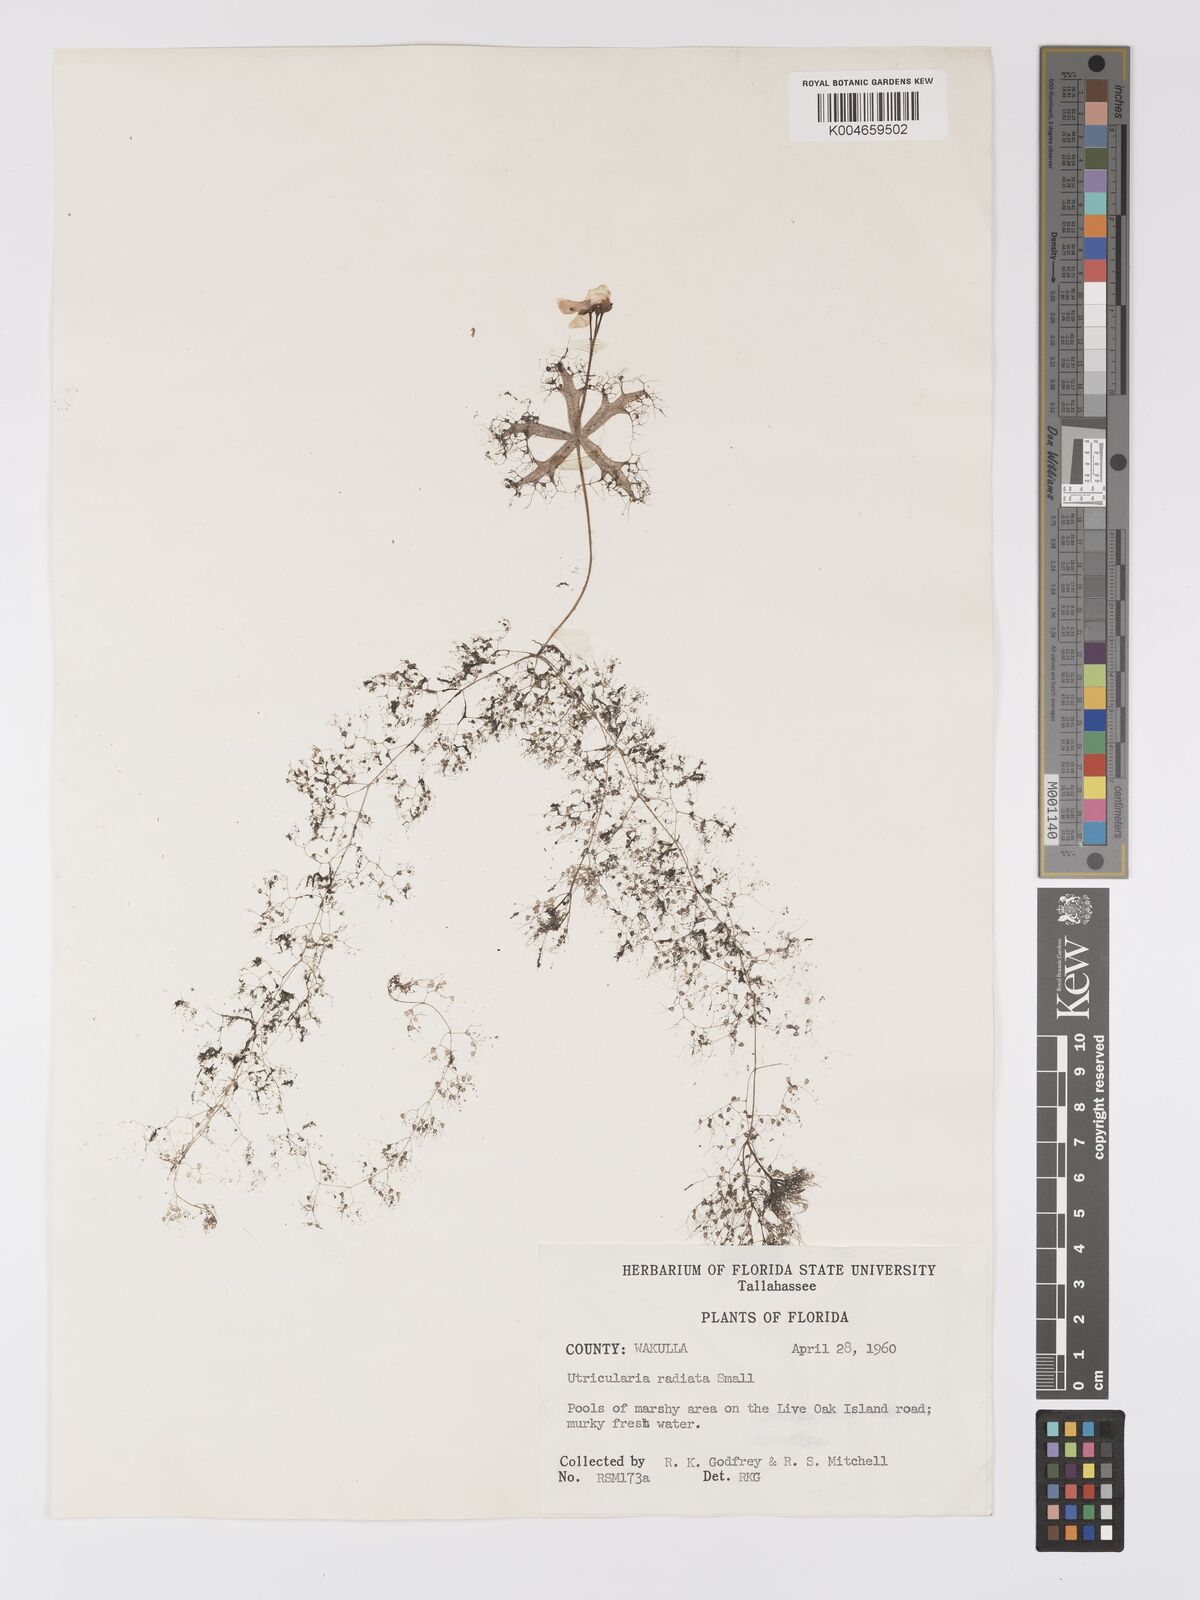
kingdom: Plantae
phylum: Tracheophyta
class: Magnoliopsida
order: Lamiales
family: Lentibulariaceae
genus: Utricularia
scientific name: Utricularia radiata
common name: Floating bladderwort
